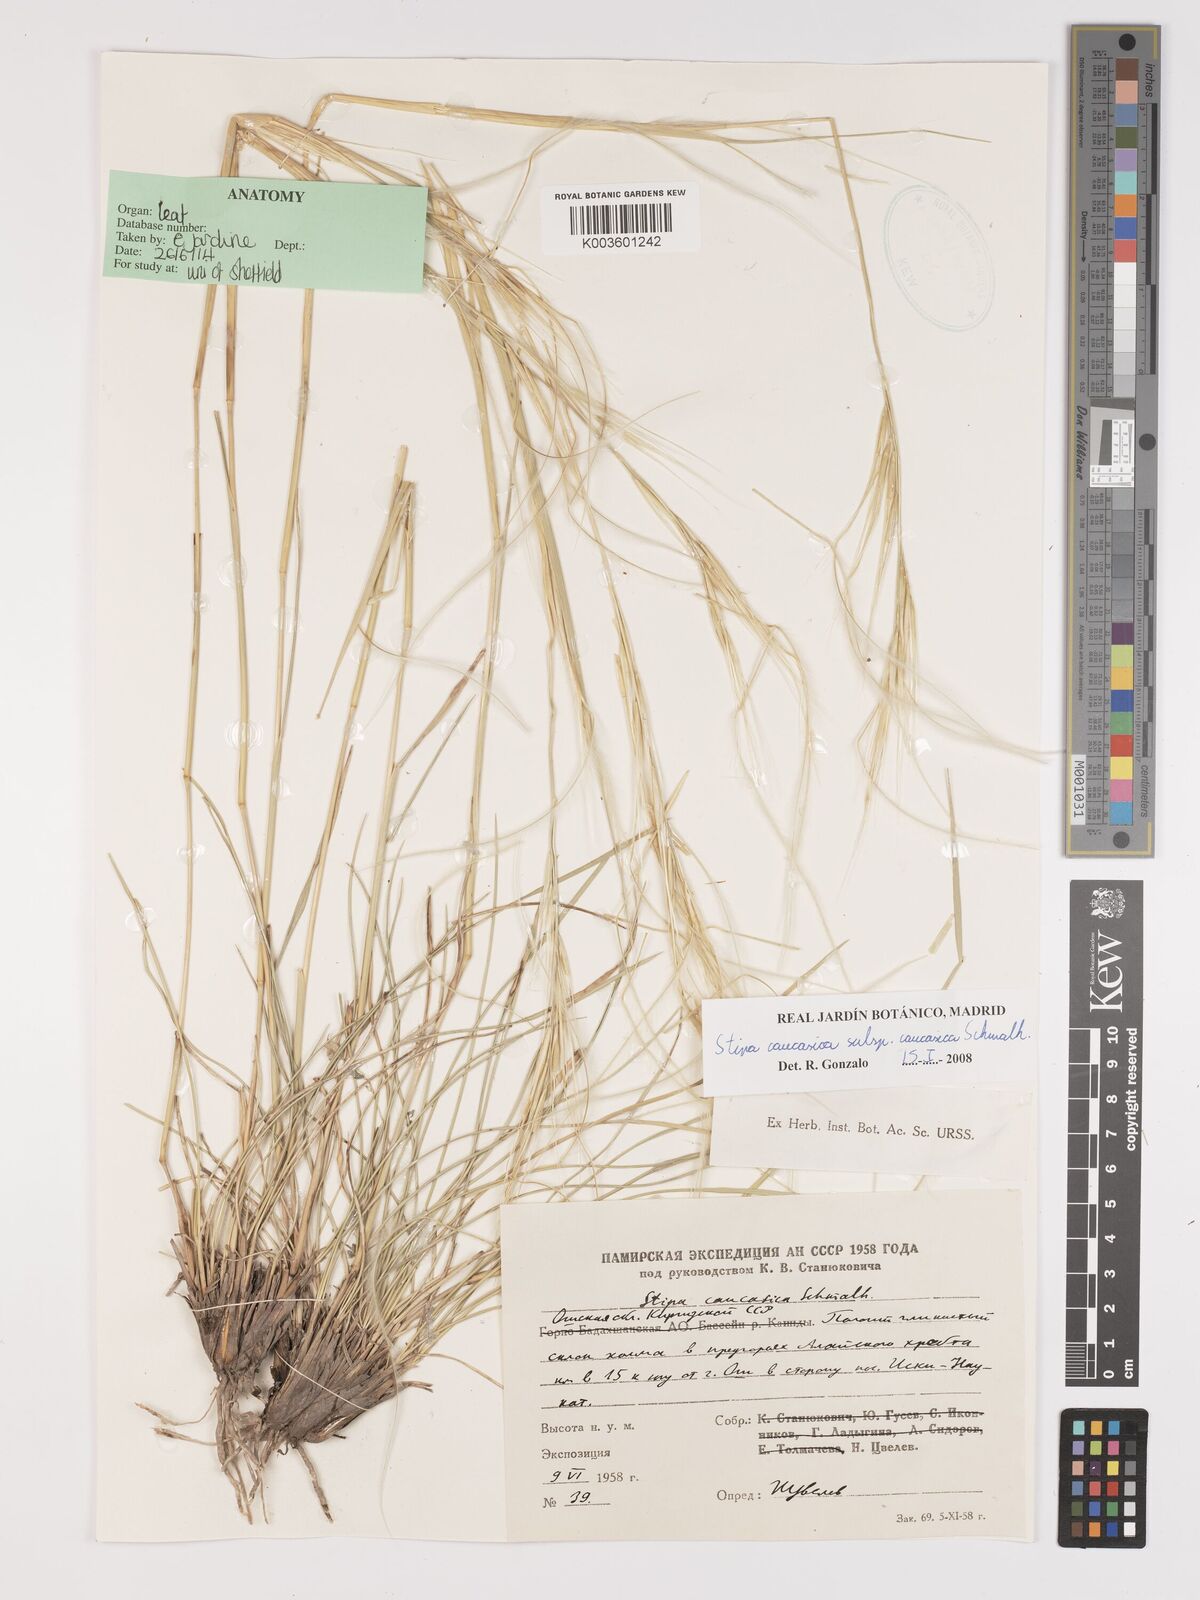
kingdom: Plantae
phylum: Tracheophyta
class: Liliopsida
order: Poales
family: Poaceae
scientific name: Poaceae
